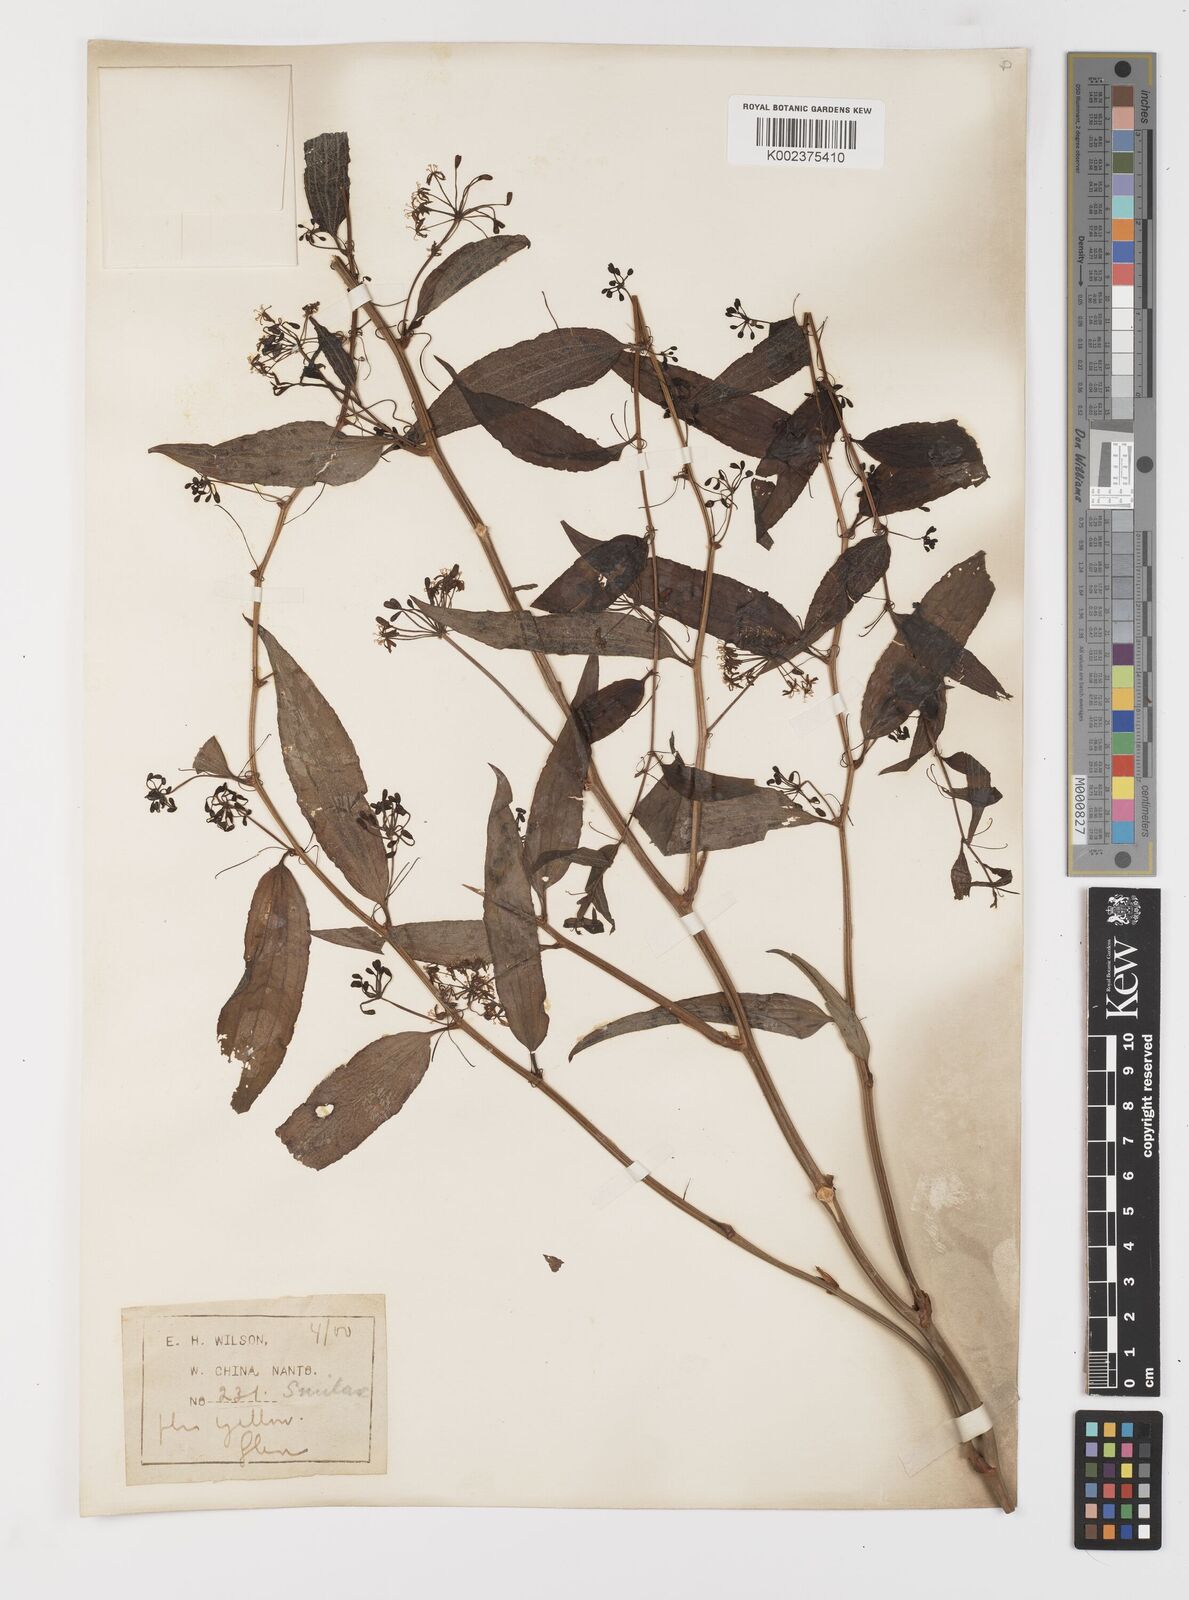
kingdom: Plantae
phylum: Tracheophyta
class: Liliopsida
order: Liliales
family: Smilacaceae
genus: Smilax
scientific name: Smilax riparia
